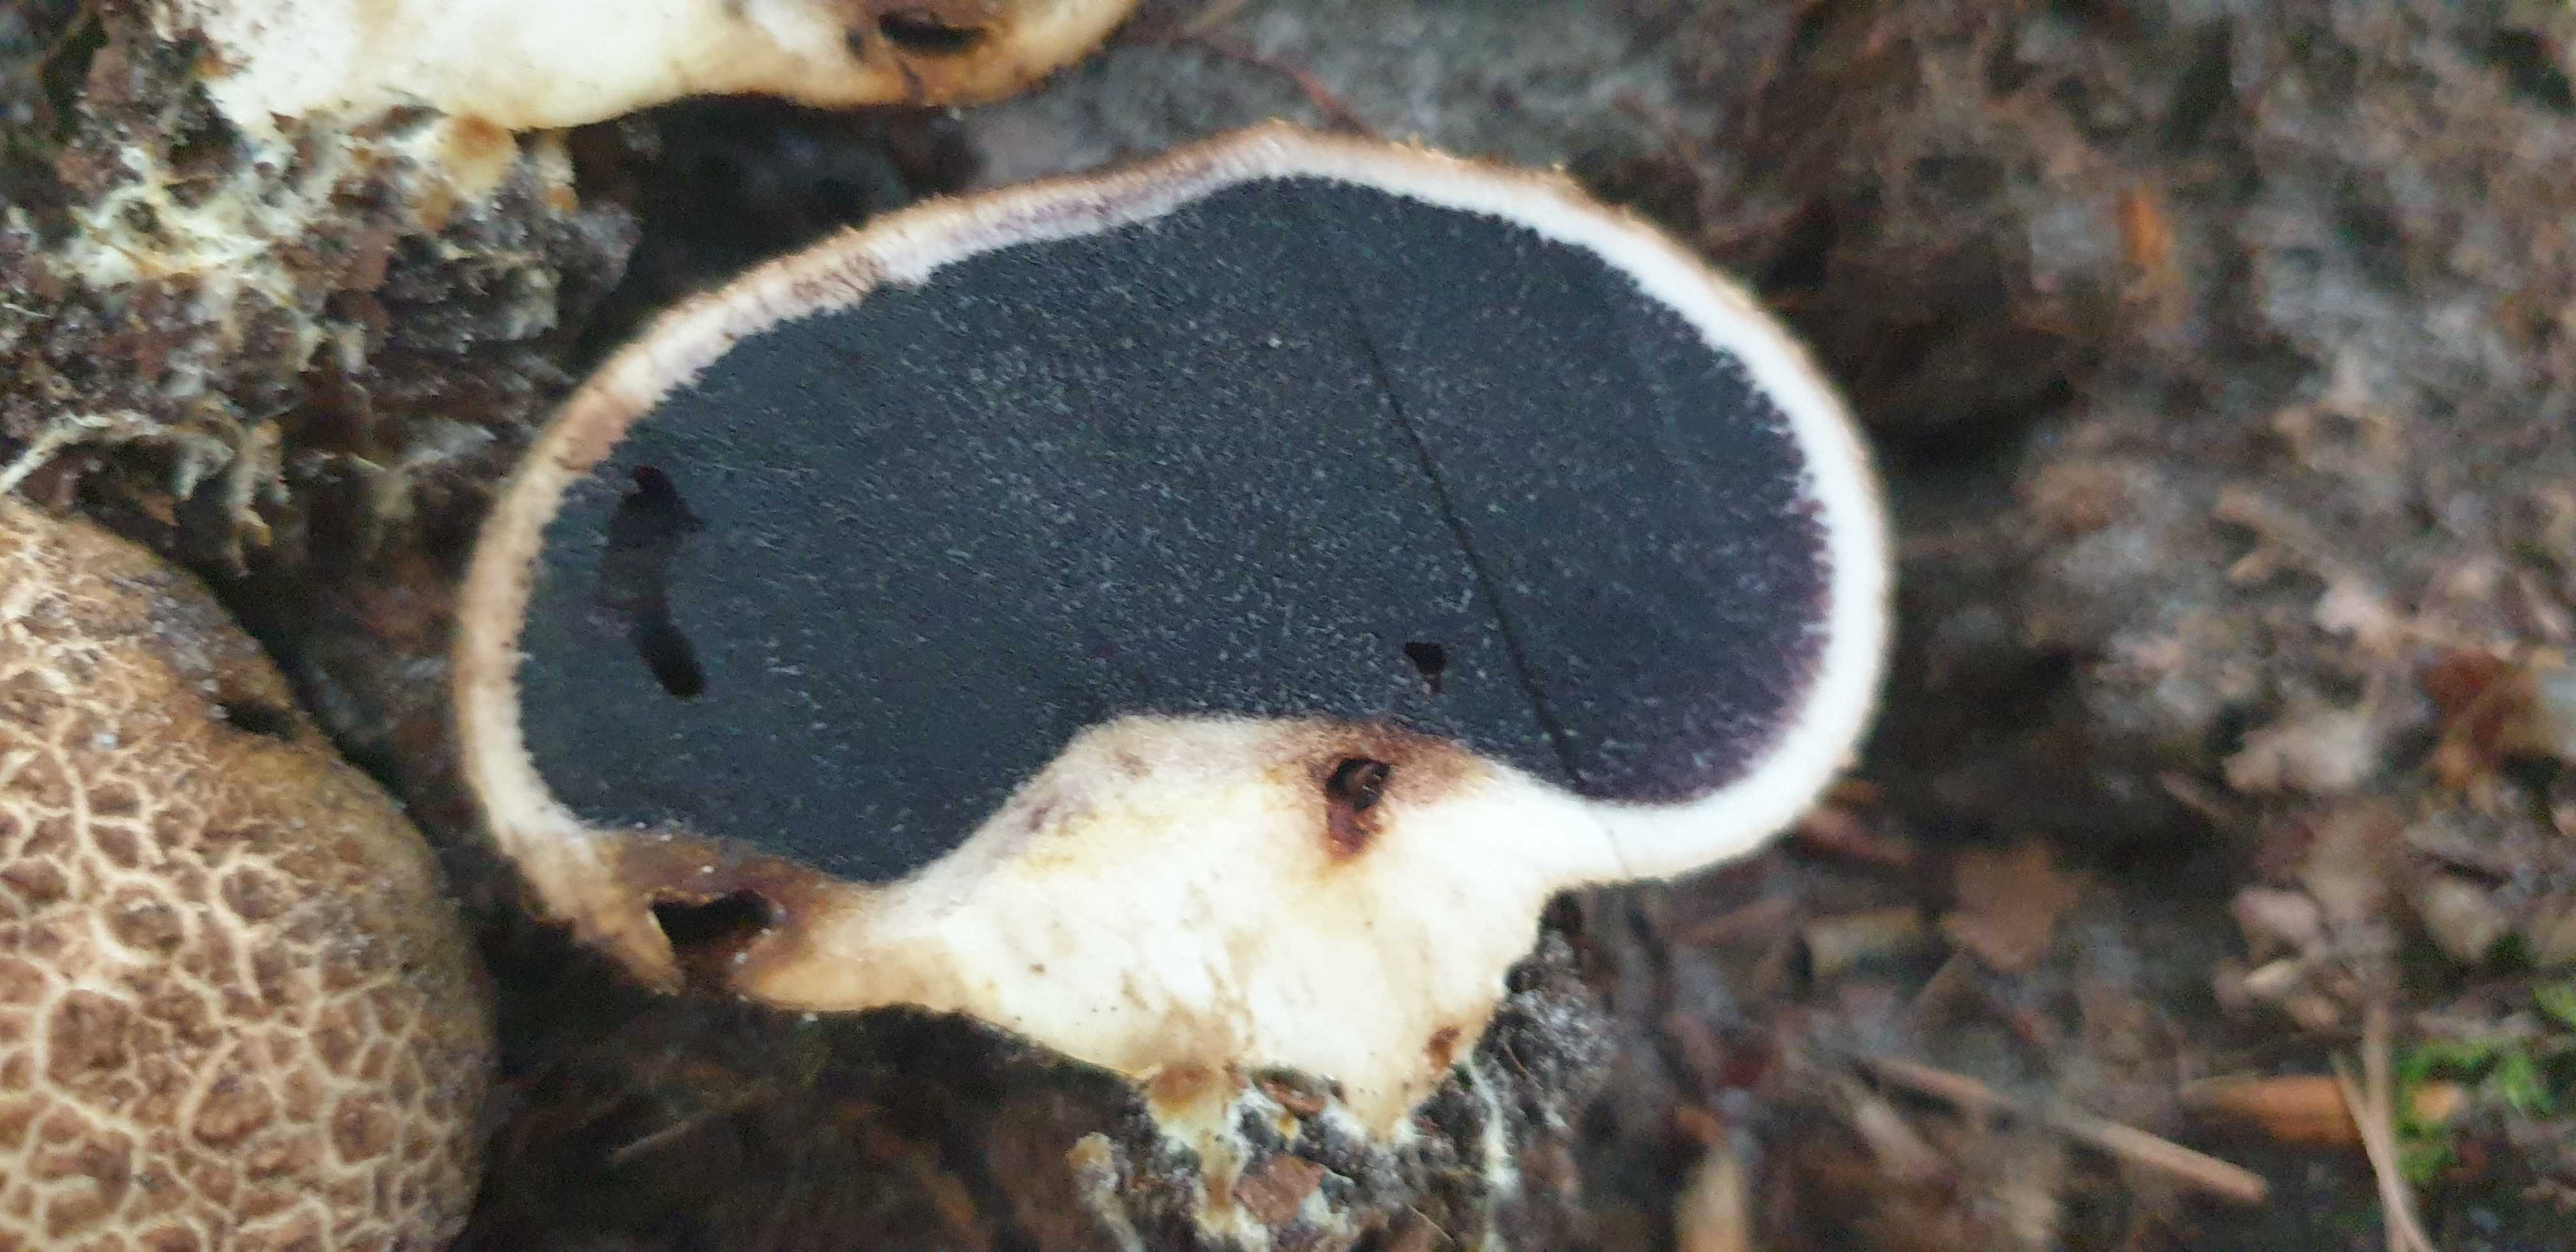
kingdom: Fungi
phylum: Basidiomycota
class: Agaricomycetes
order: Boletales
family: Sclerodermataceae
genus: Scleroderma
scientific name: Scleroderma citrinum
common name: almindelig bruskbold
